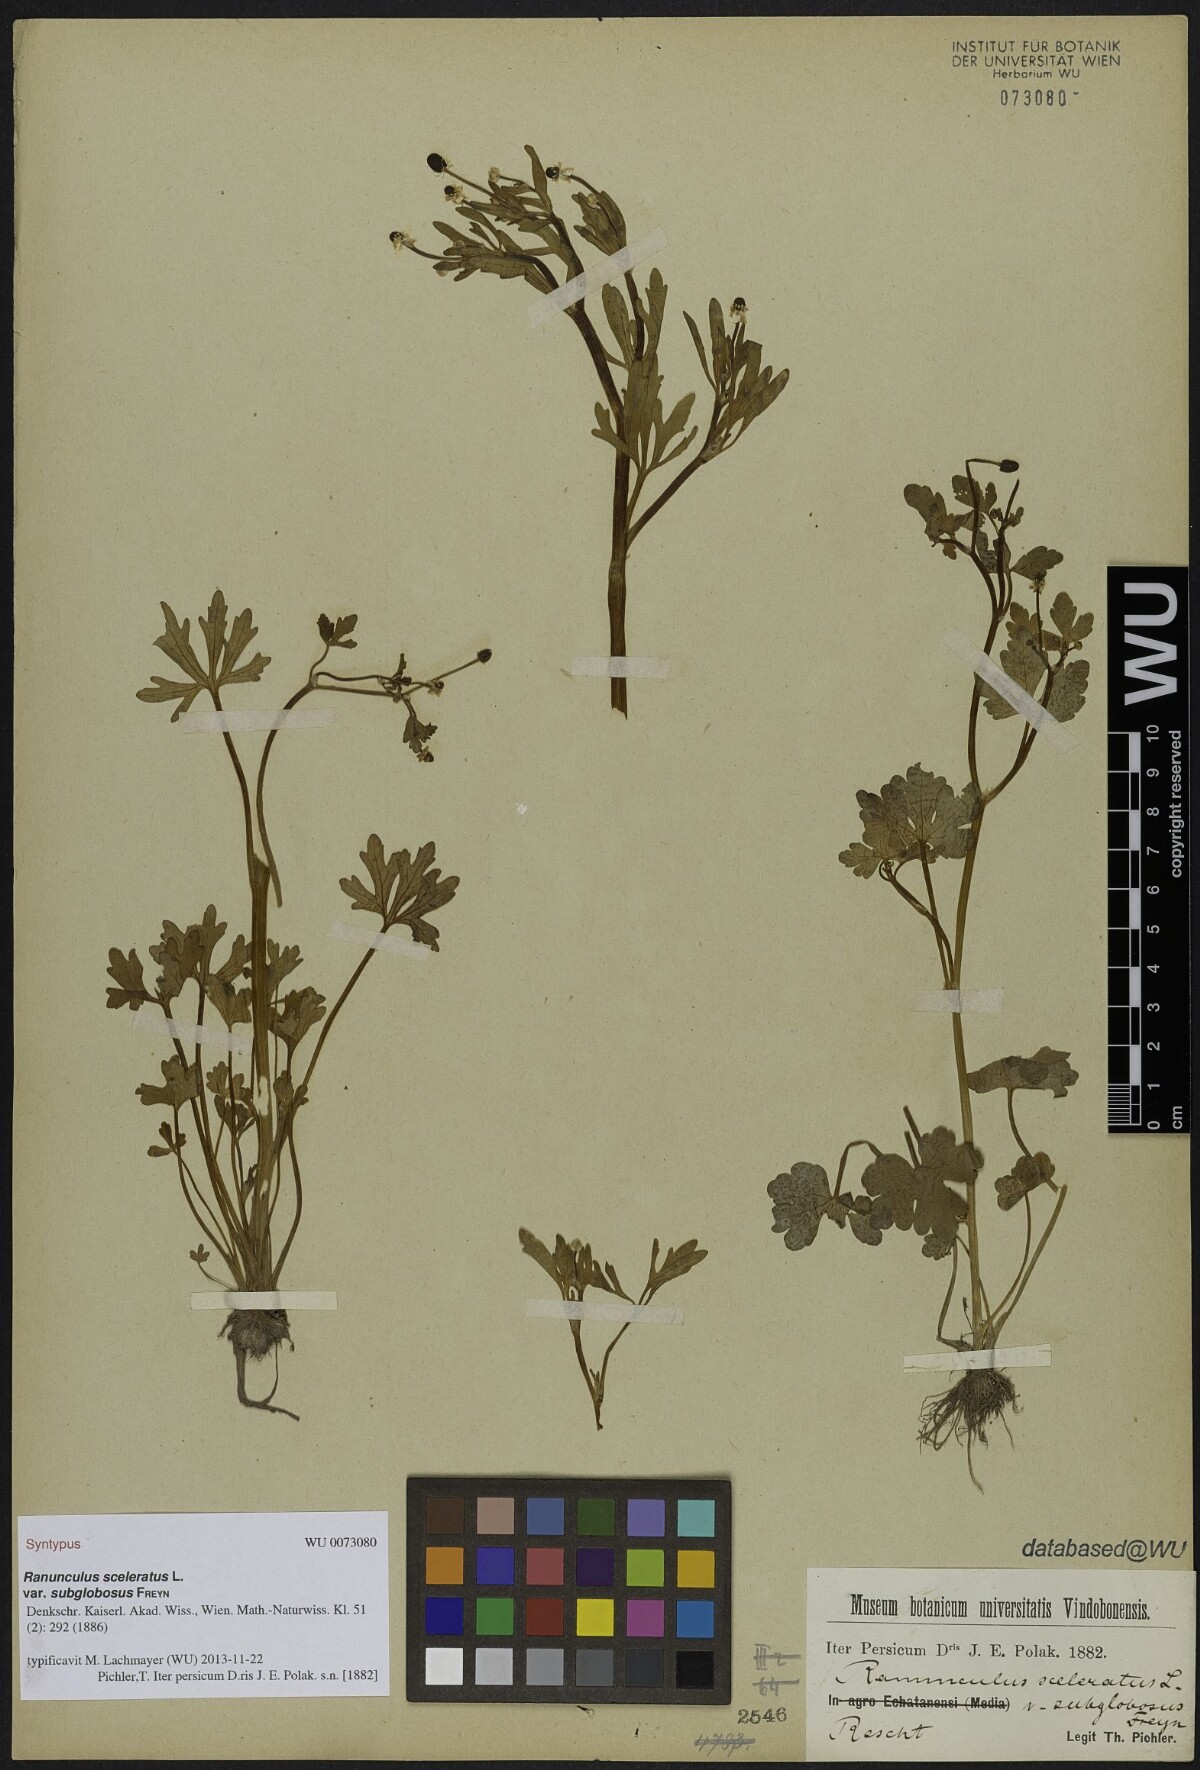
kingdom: Plantae
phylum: Tracheophyta
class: Magnoliopsida
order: Ranunculales
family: Ranunculaceae
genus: Ranunculus
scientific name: Ranunculus sceleratus
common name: Celery-leaved buttercup
